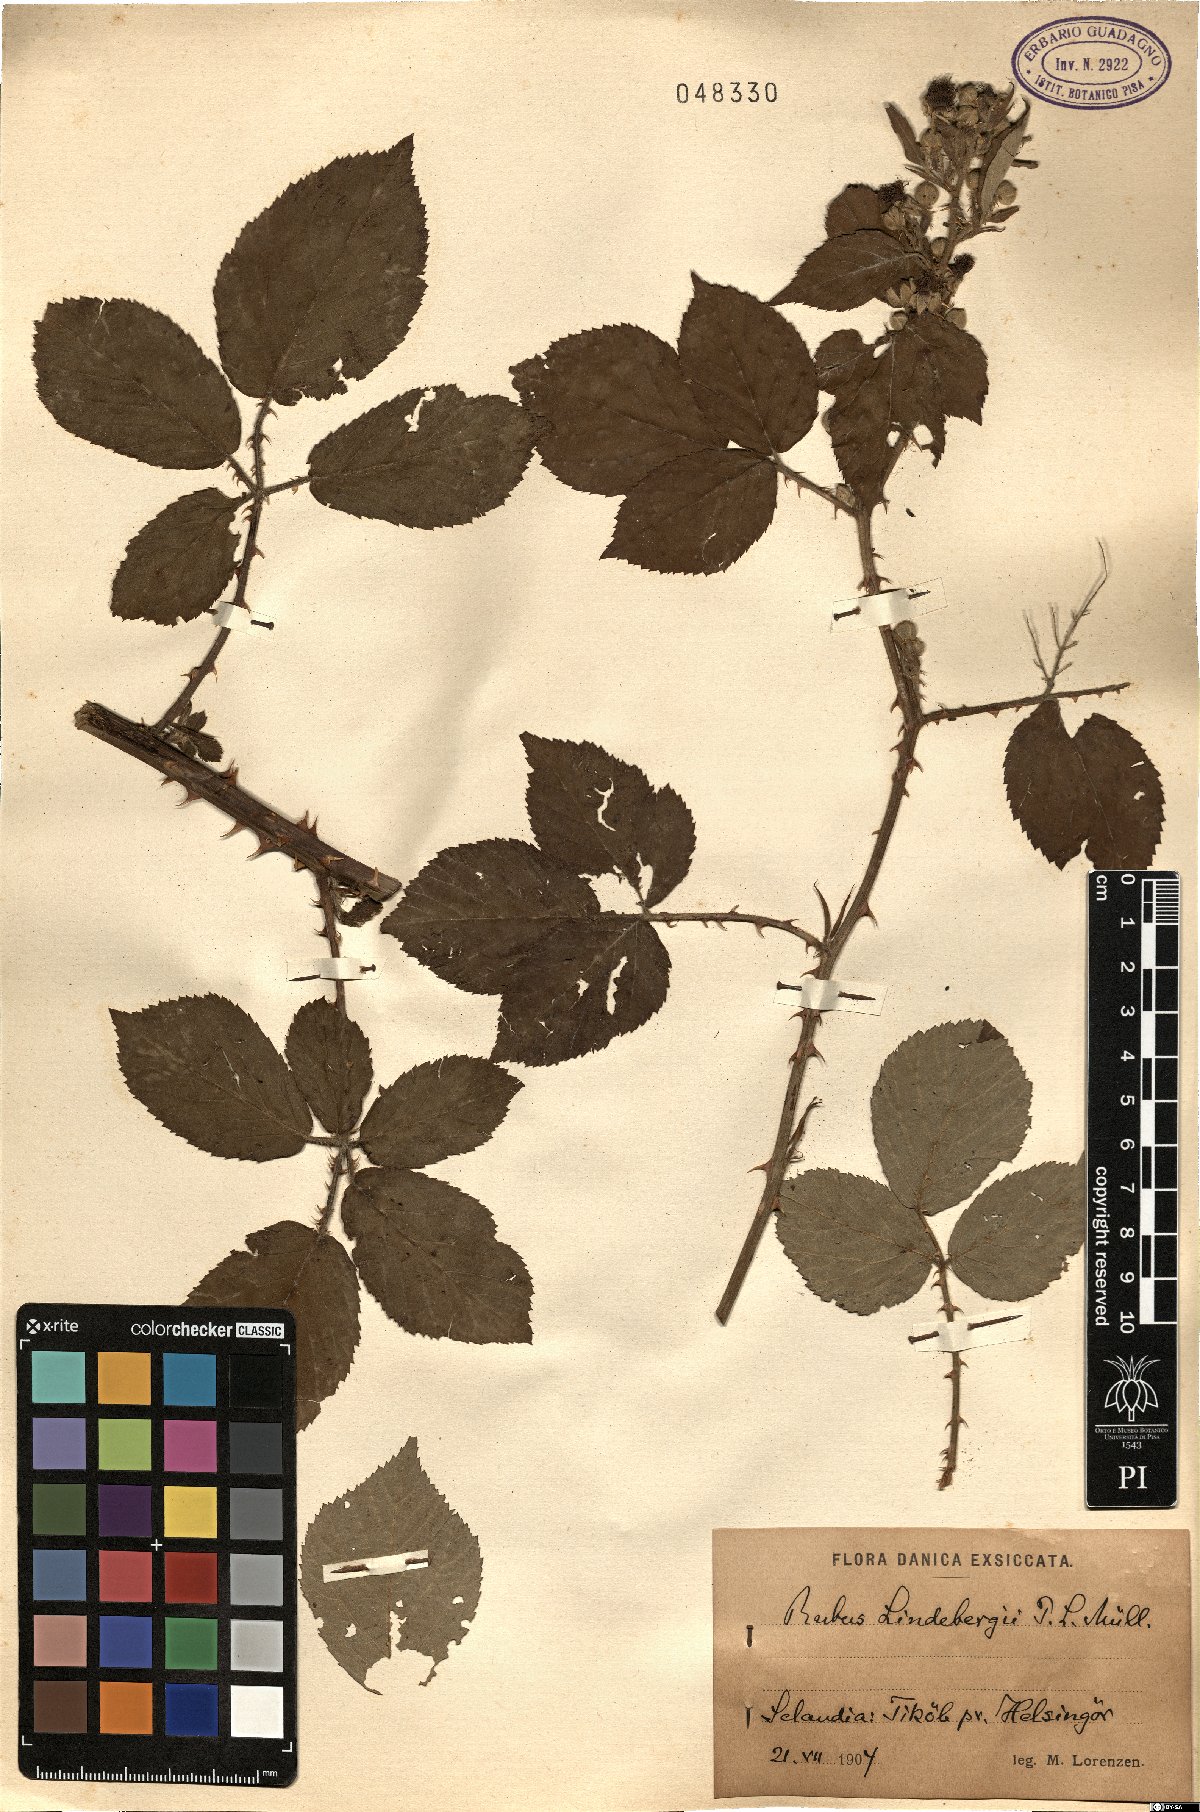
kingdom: Plantae
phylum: Tracheophyta
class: Magnoliopsida
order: Rosales
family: Rosaceae
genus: Rubus
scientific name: Rubus lindebergii
